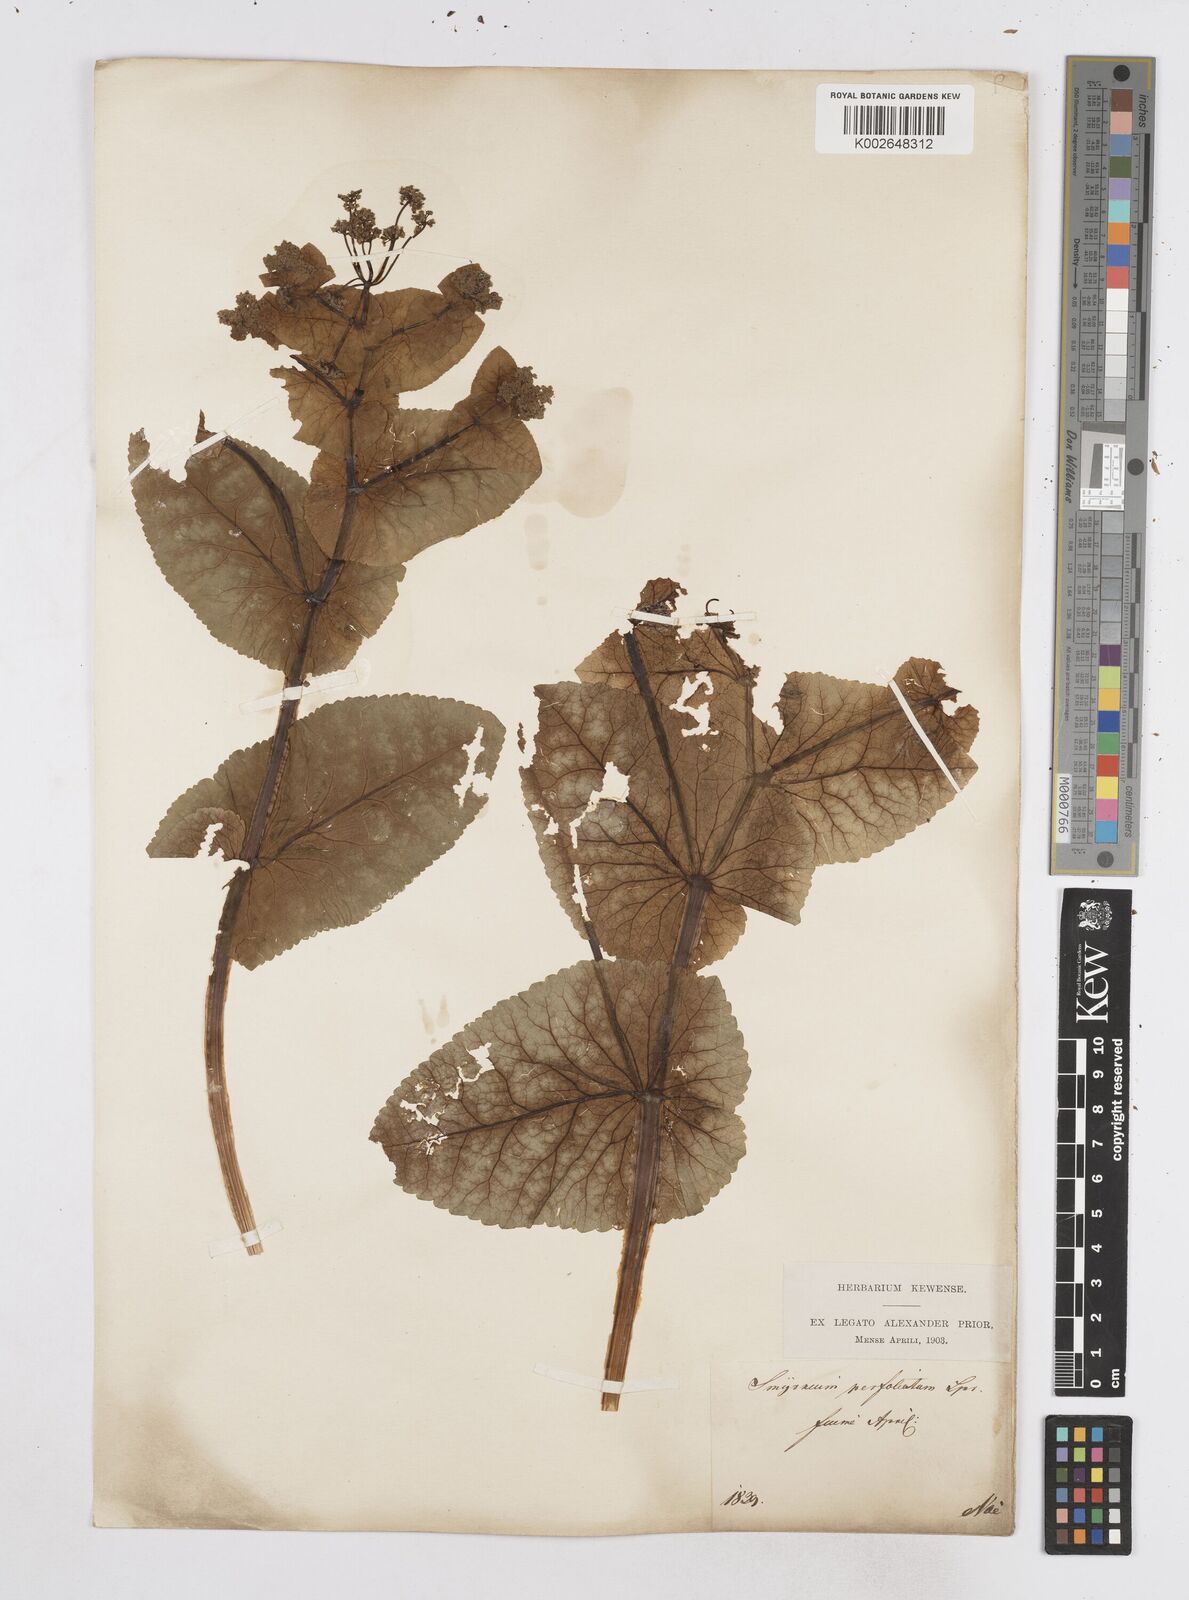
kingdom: Plantae
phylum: Tracheophyta
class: Magnoliopsida
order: Apiales
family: Apiaceae
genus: Smyrnium
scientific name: Smyrnium perfoliatum
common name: Perfoliate alexanders
